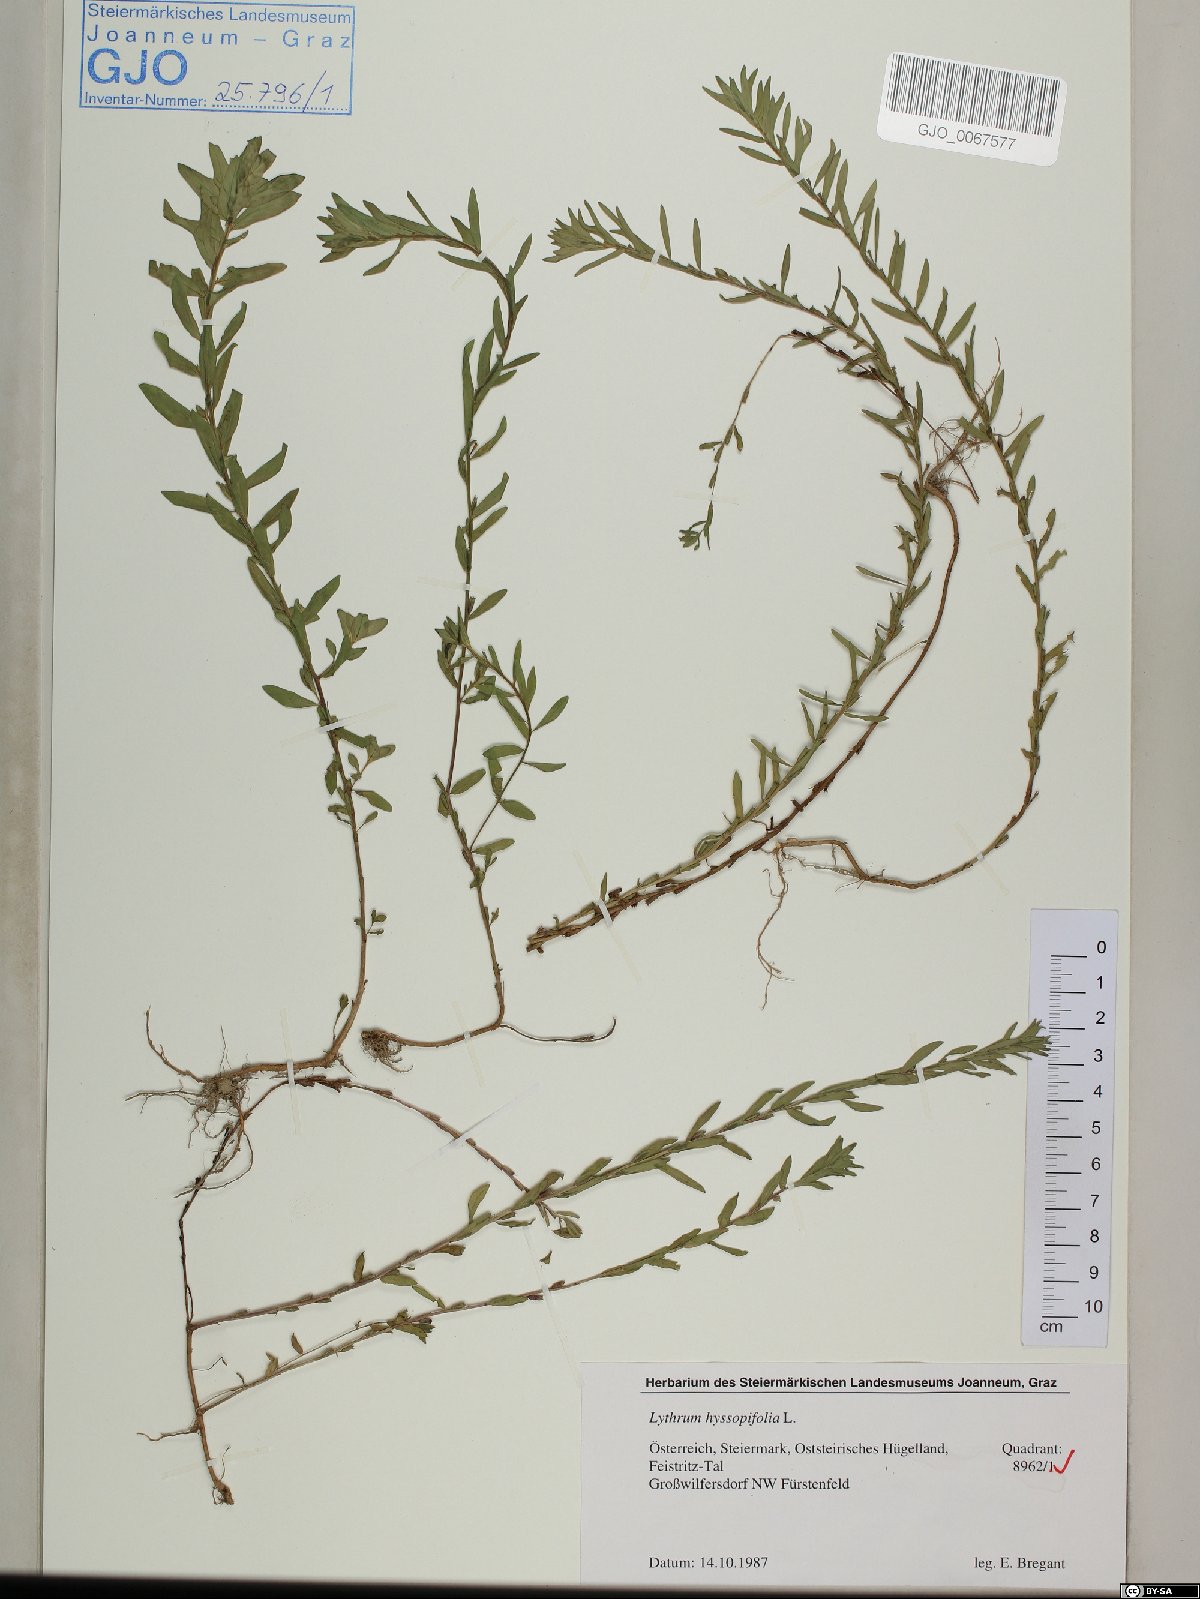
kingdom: Plantae
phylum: Tracheophyta
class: Magnoliopsida
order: Myrtales
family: Lythraceae
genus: Lythrum
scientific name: Lythrum hyssopifolia
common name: Grass-poly
